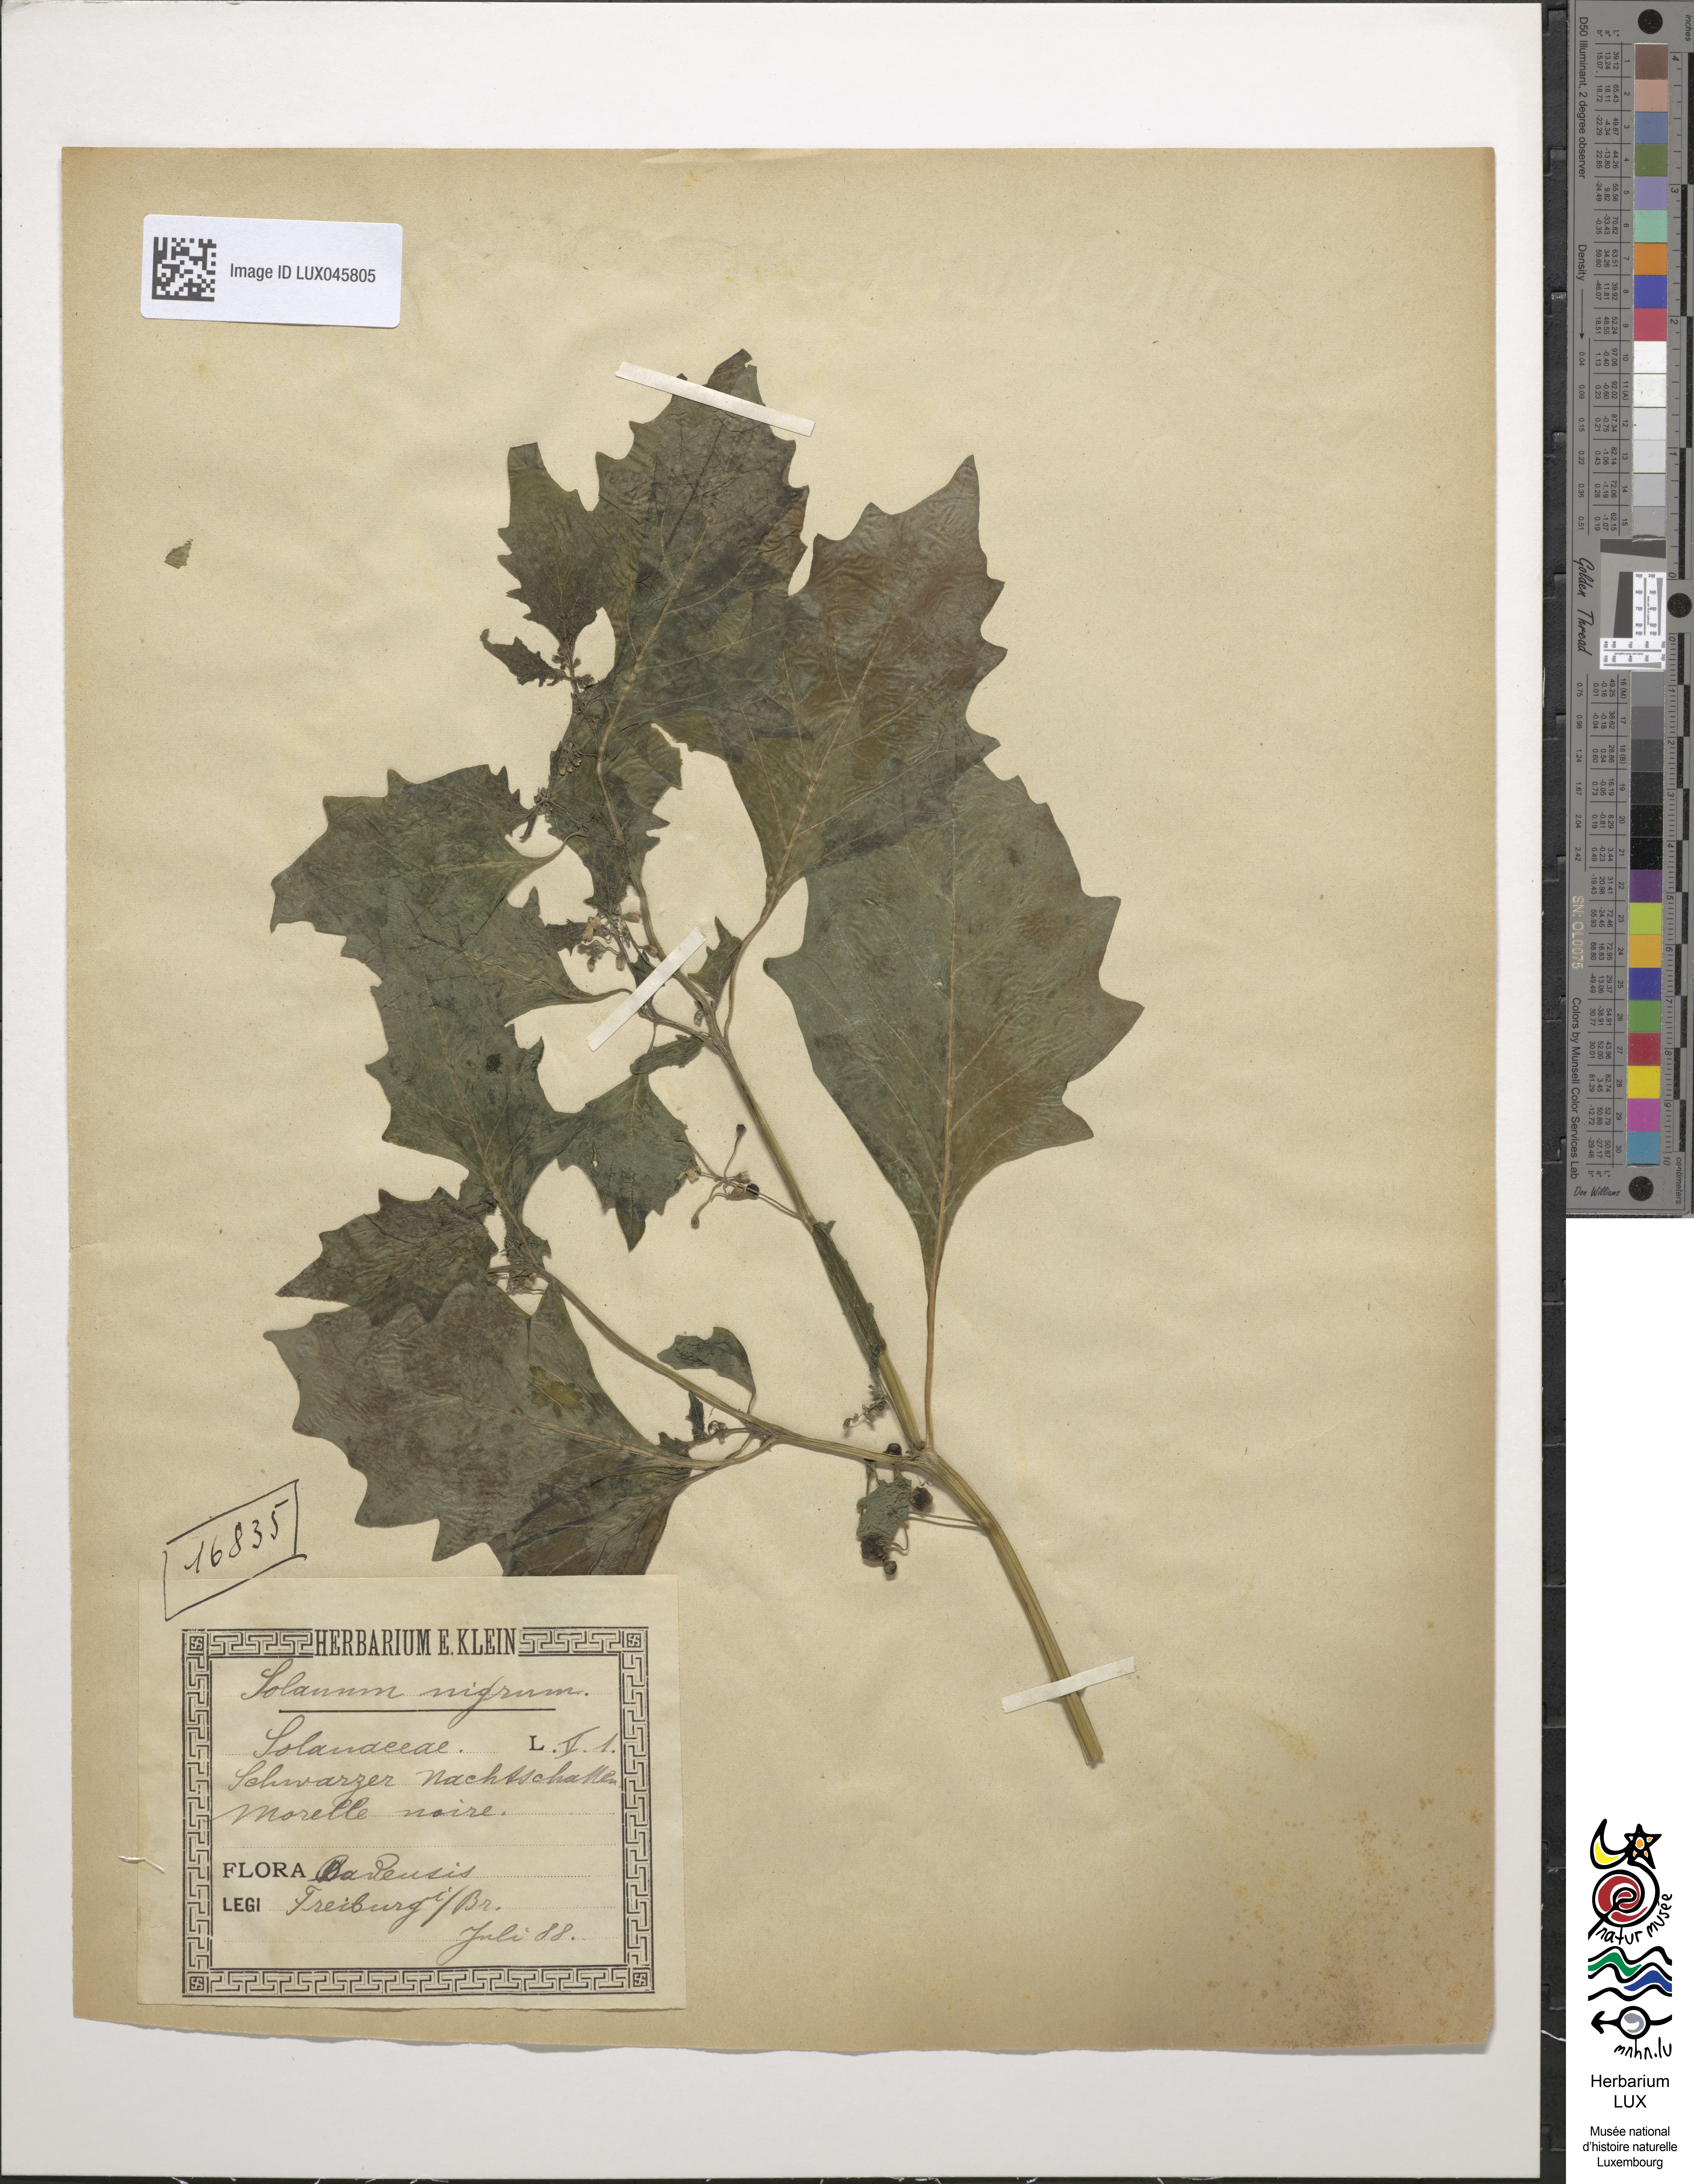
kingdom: Plantae
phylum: Tracheophyta
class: Magnoliopsida
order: Solanales
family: Solanaceae
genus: Solanum
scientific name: Solanum nigrum
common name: Black nightshade
